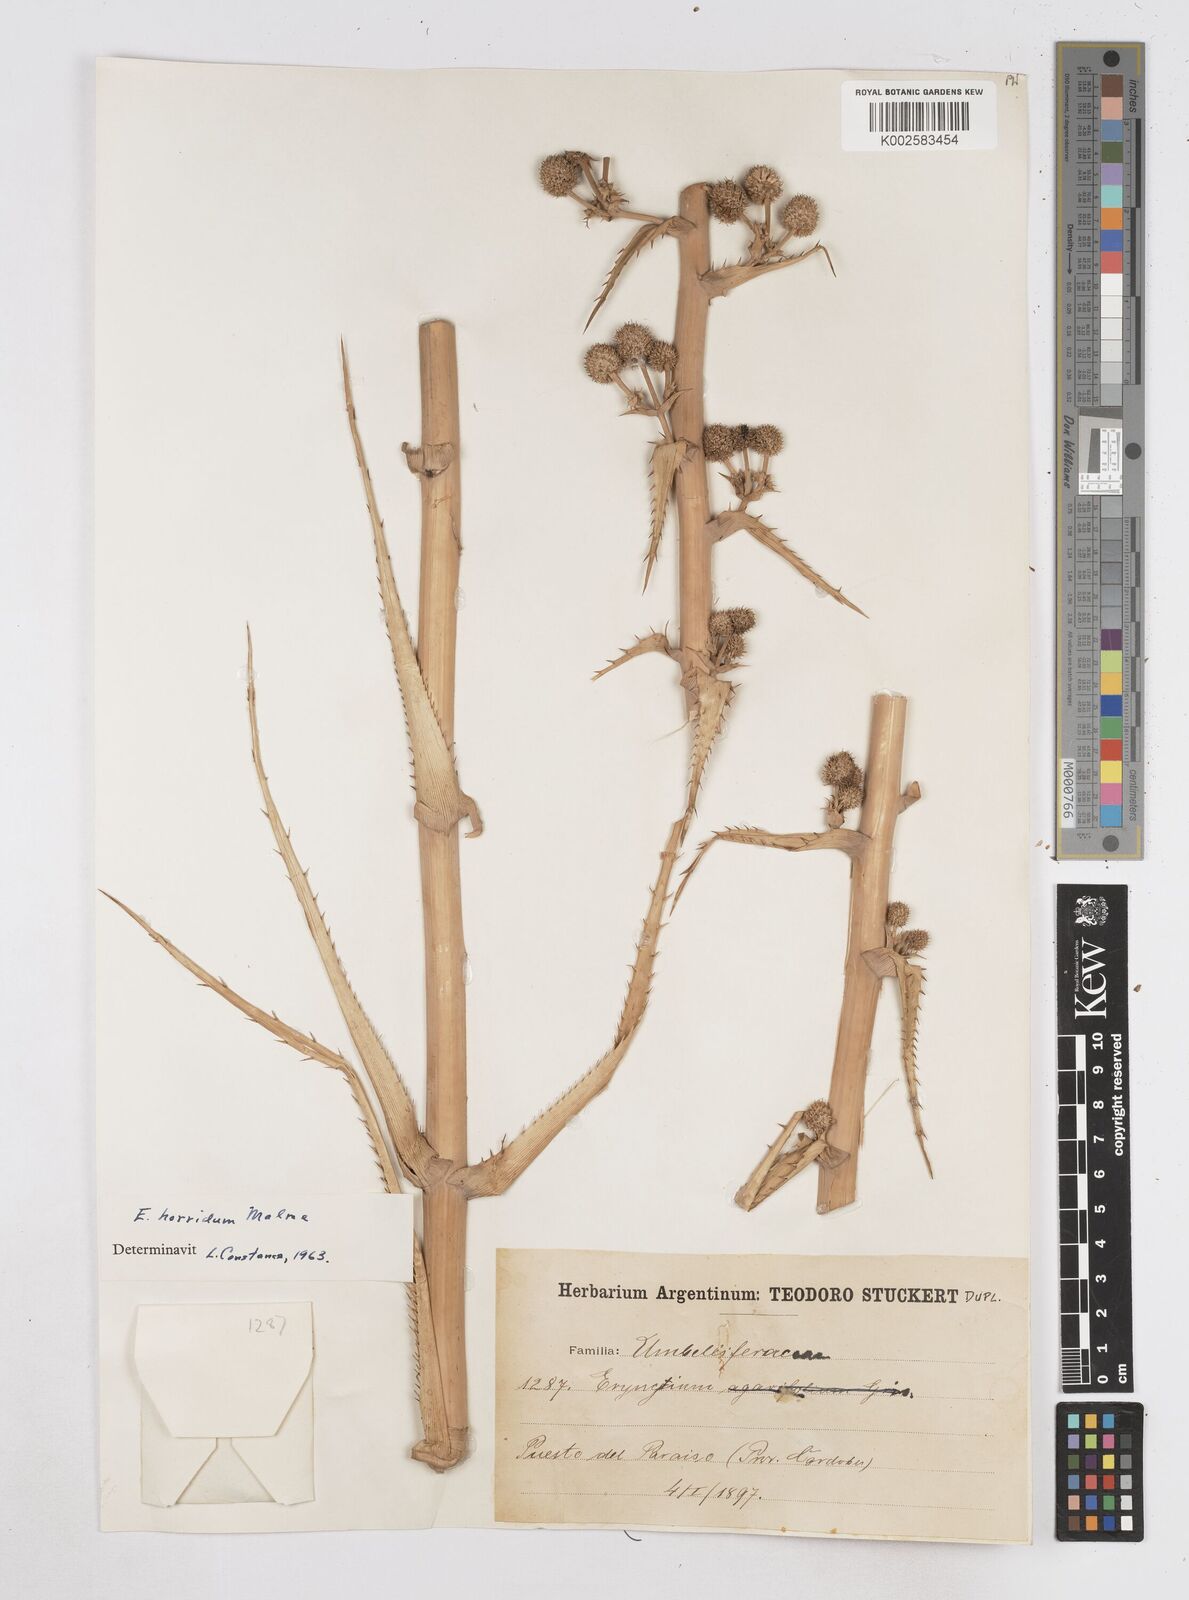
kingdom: Plantae
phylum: Tracheophyta
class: Magnoliopsida
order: Apiales
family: Apiaceae
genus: Eryngium
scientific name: Eryngium horridum
